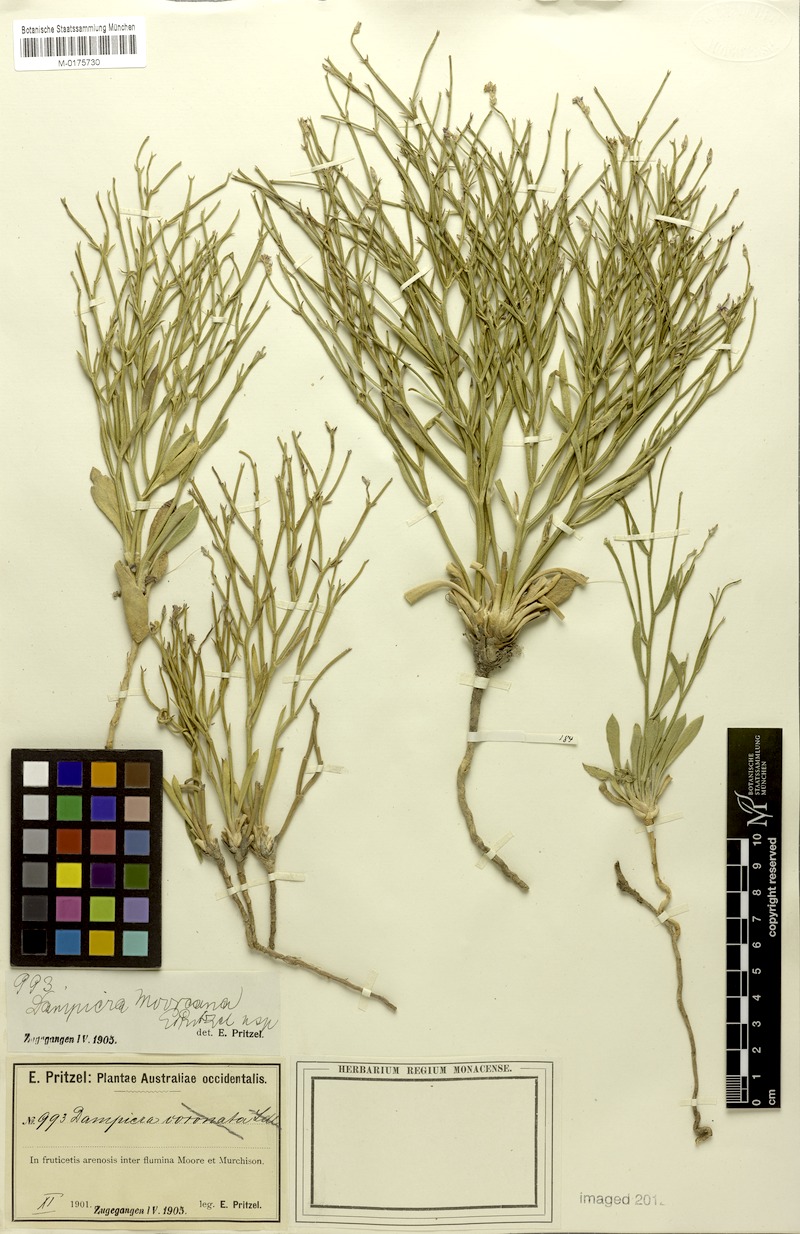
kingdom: Plantae
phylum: Tracheophyta
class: Magnoliopsida
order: Asterales
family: Goodeniaceae
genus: Dampiera
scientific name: Dampiera carinata
